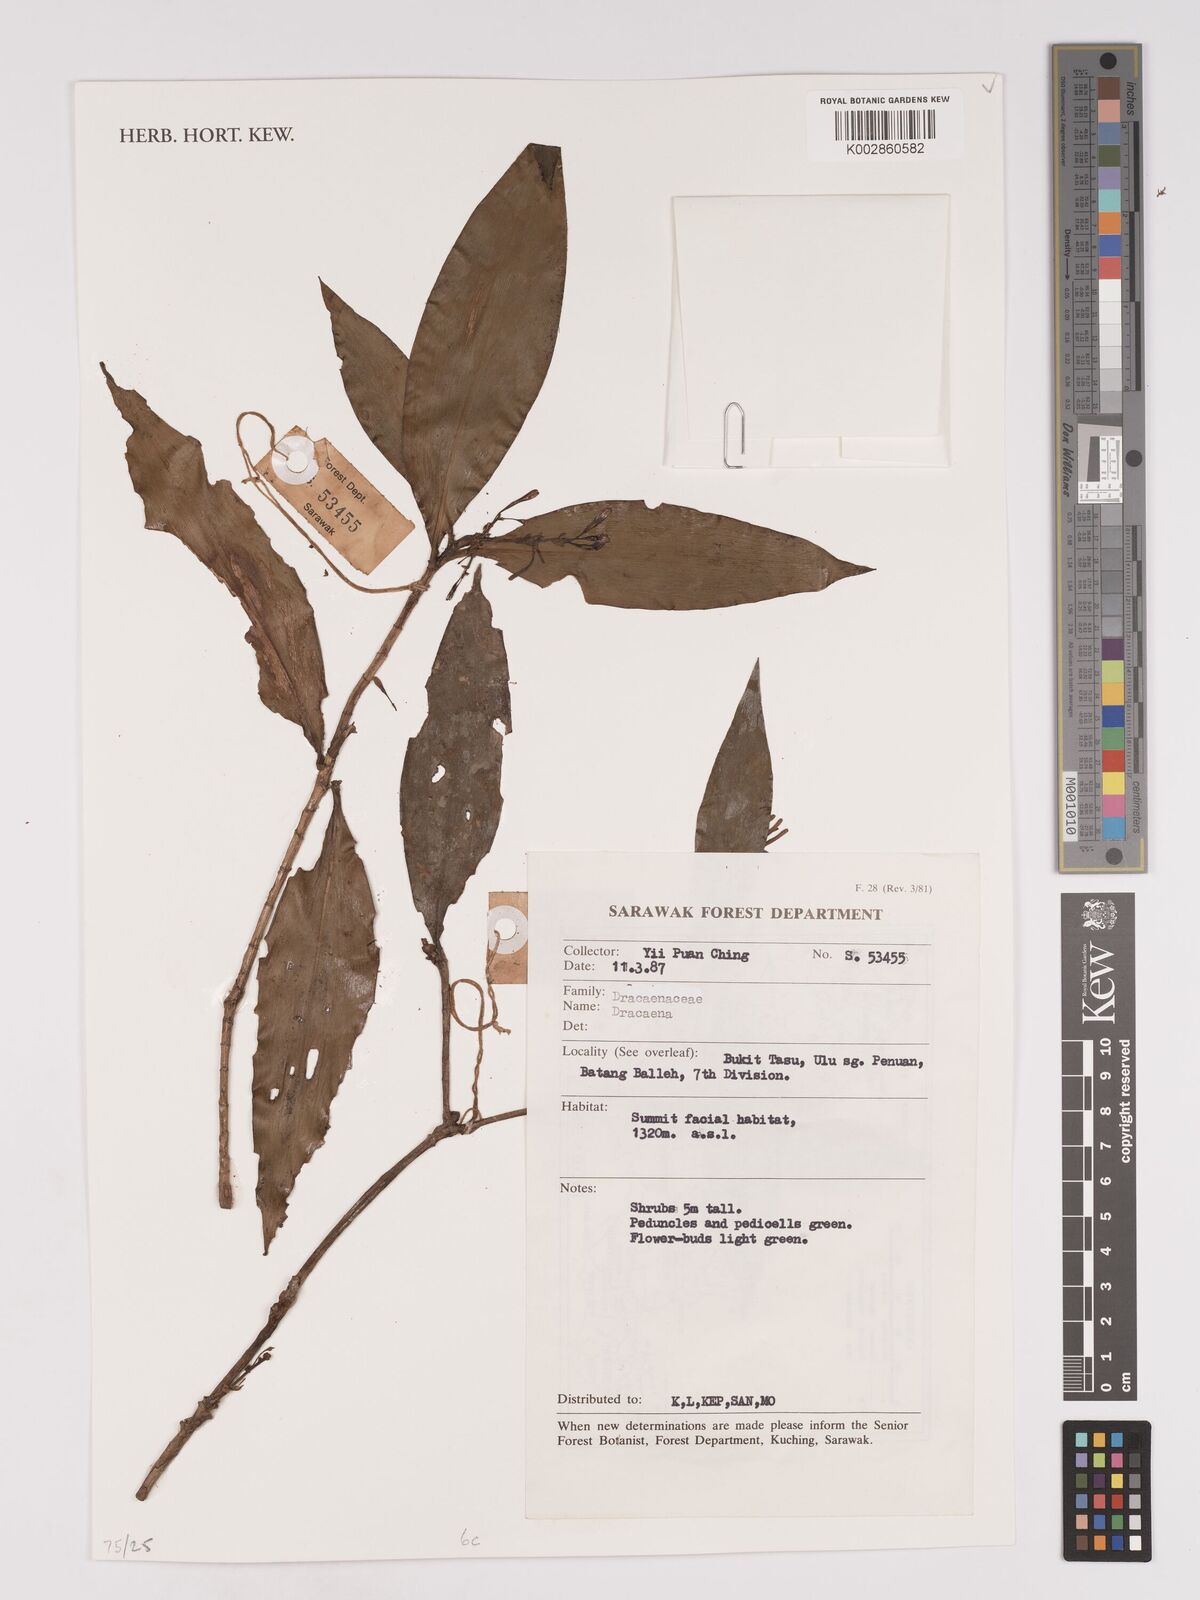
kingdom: Plantae
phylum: Tracheophyta
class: Liliopsida
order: Asparagales
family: Asparagaceae
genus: Dracaena
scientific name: Dracaena
